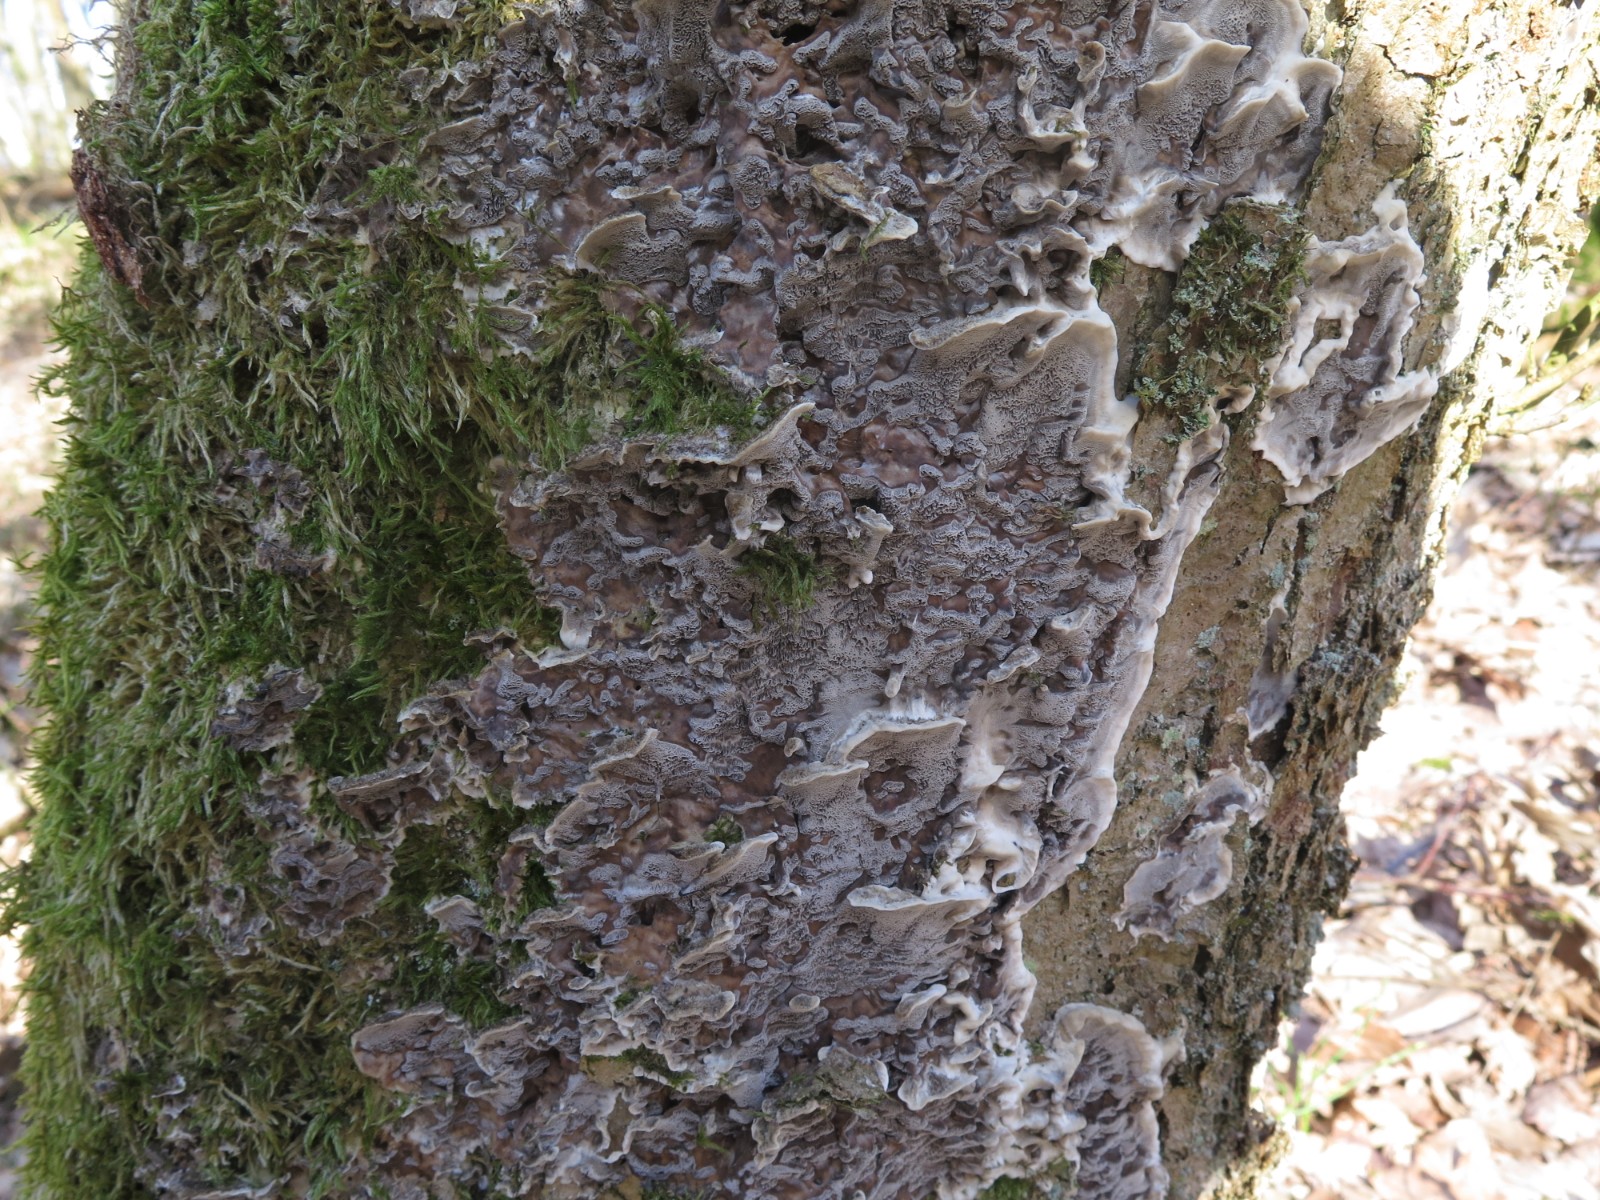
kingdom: Fungi
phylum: Basidiomycota
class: Agaricomycetes
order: Polyporales
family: Phanerochaetaceae
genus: Bjerkandera
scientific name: Bjerkandera adusta
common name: sveden sodporesvamp
